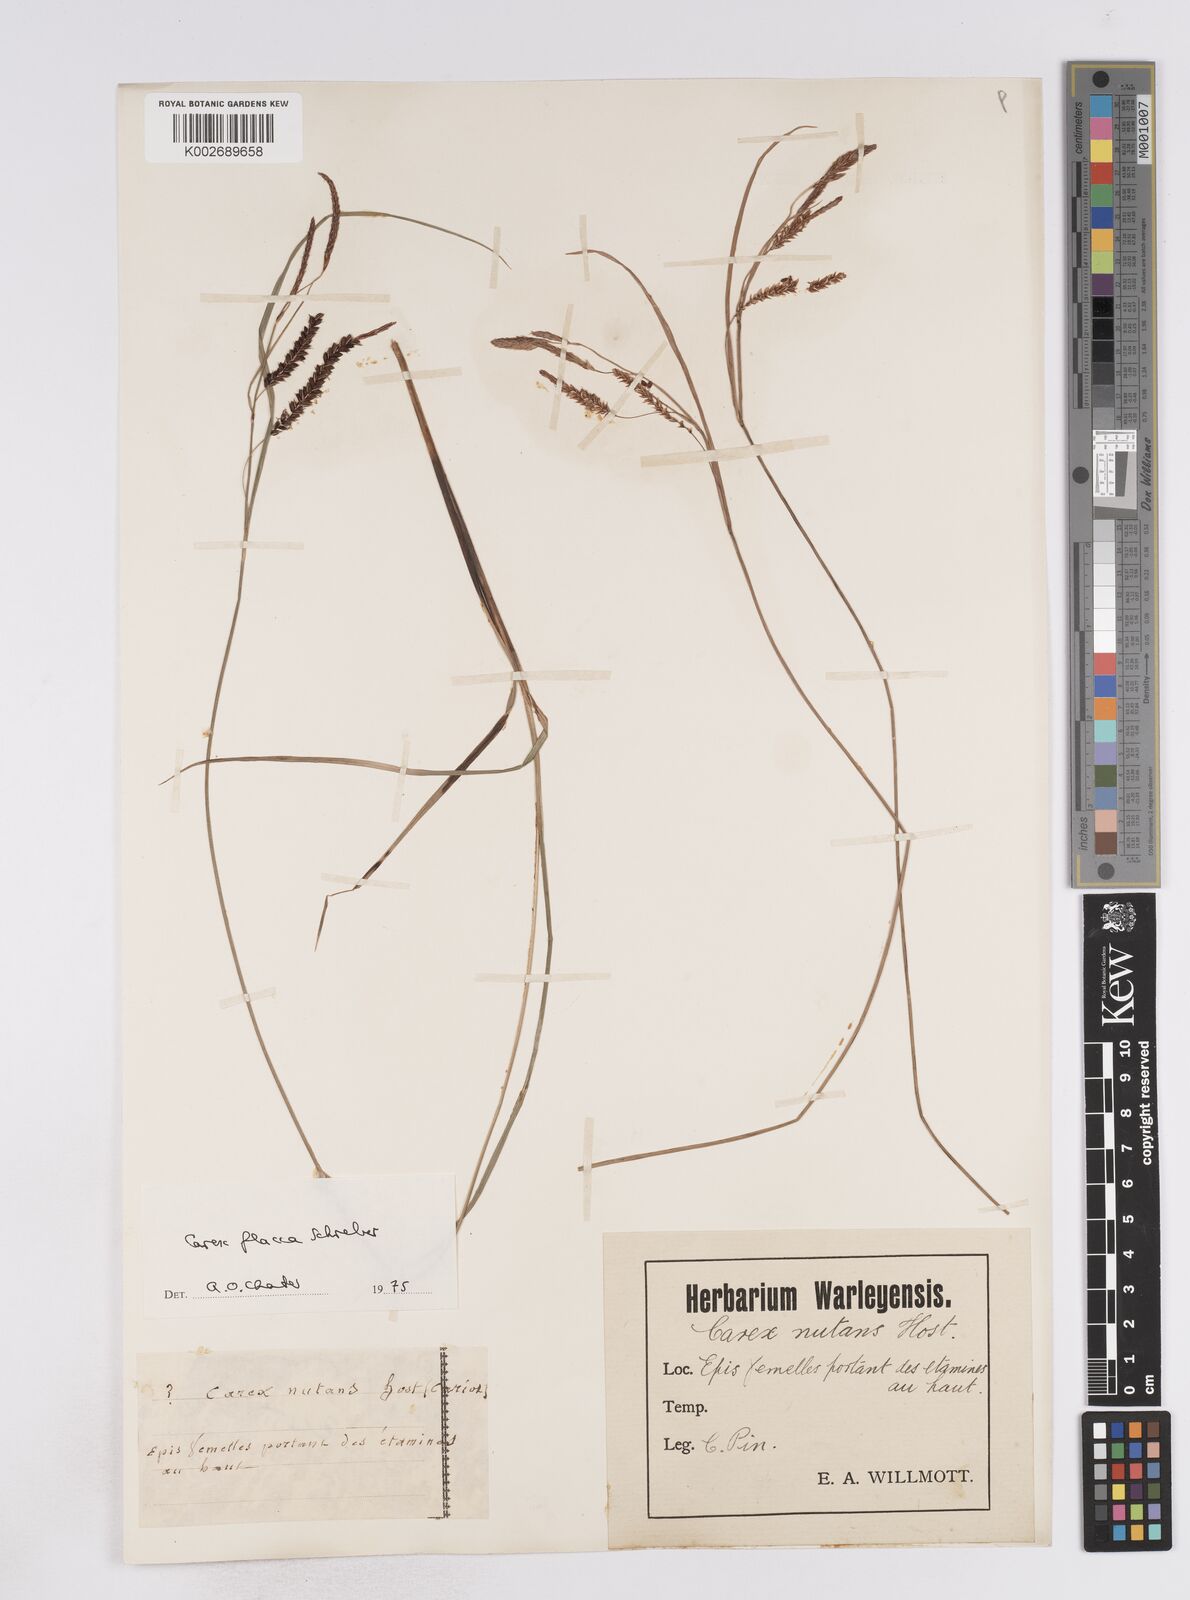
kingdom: Plantae
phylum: Tracheophyta
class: Liliopsida
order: Poales
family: Cyperaceae
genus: Carex
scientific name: Carex flacca
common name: Glaucous sedge
